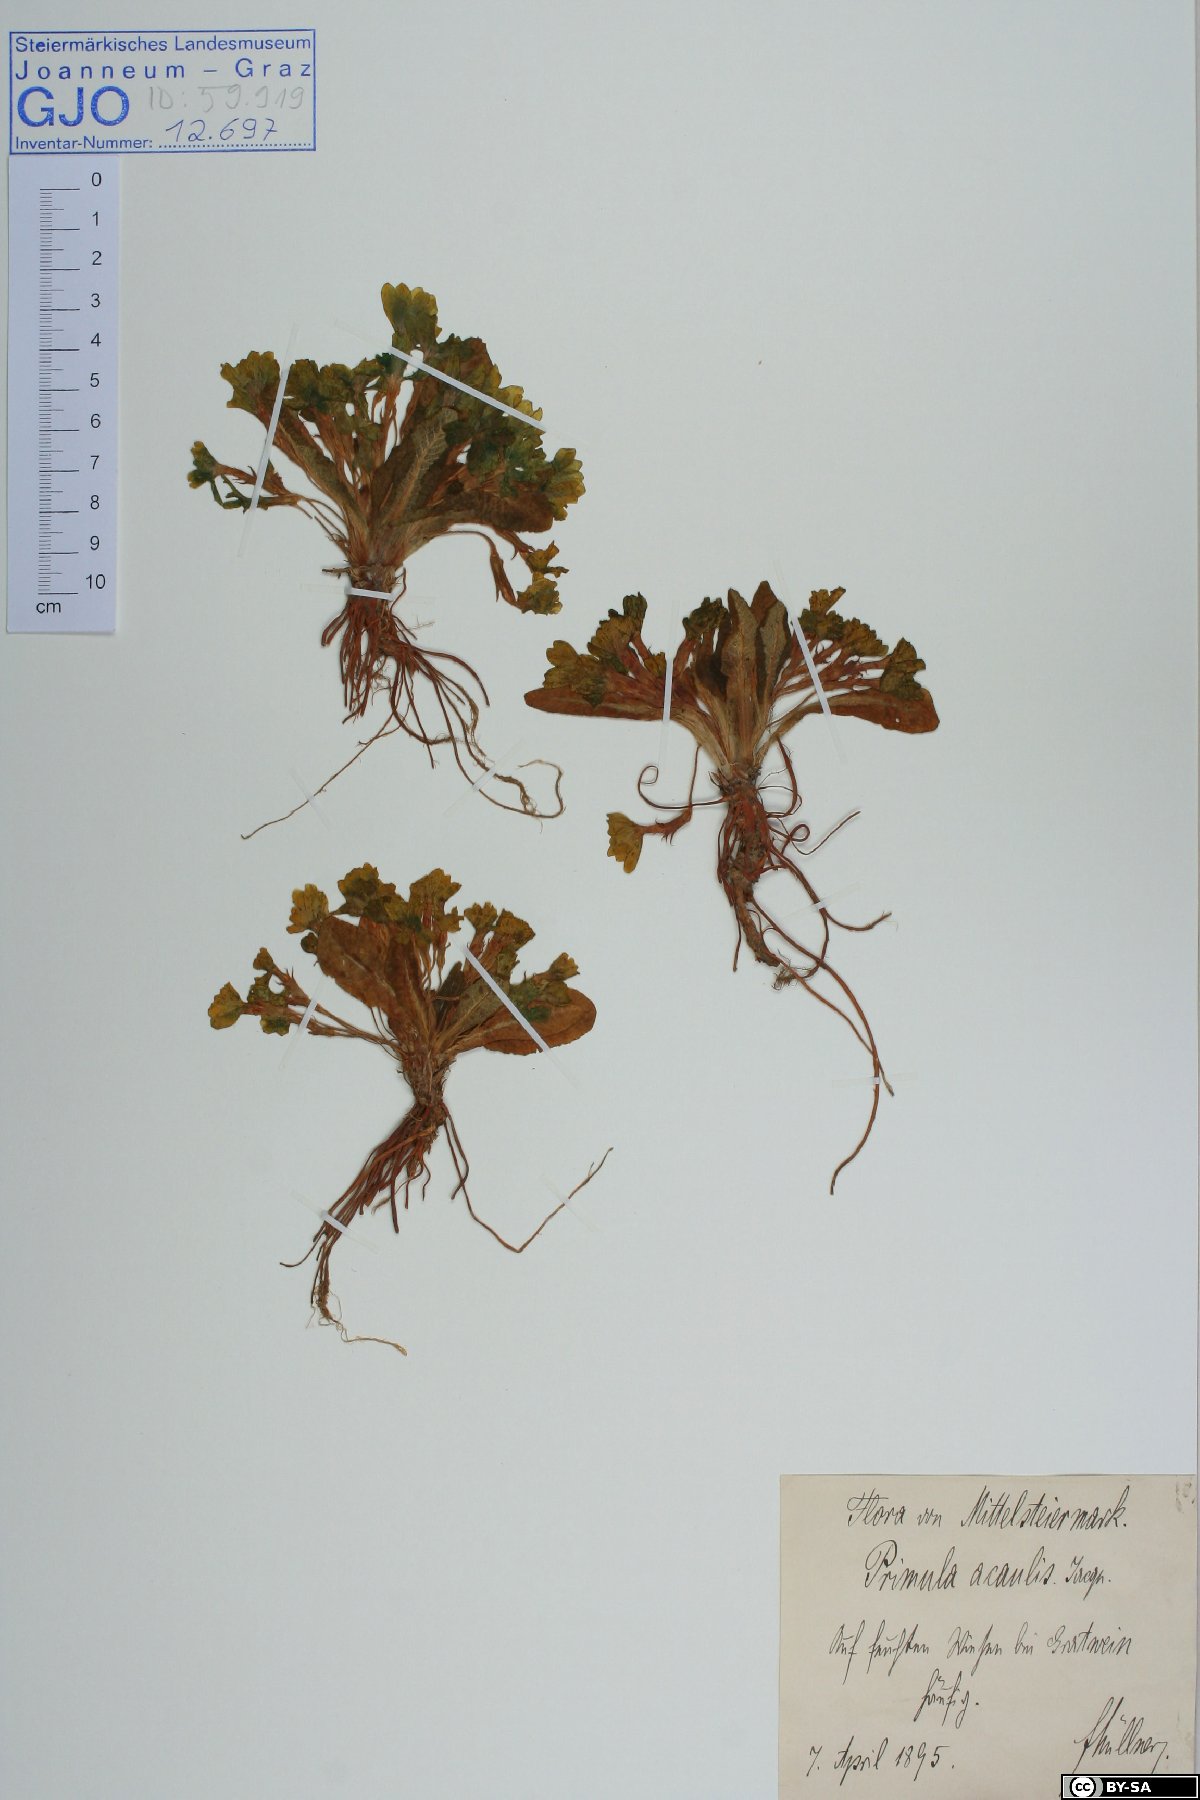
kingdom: Plantae
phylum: Tracheophyta
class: Magnoliopsida
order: Ericales
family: Primulaceae
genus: Primula
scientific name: Primula vulgaris
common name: Primrose
